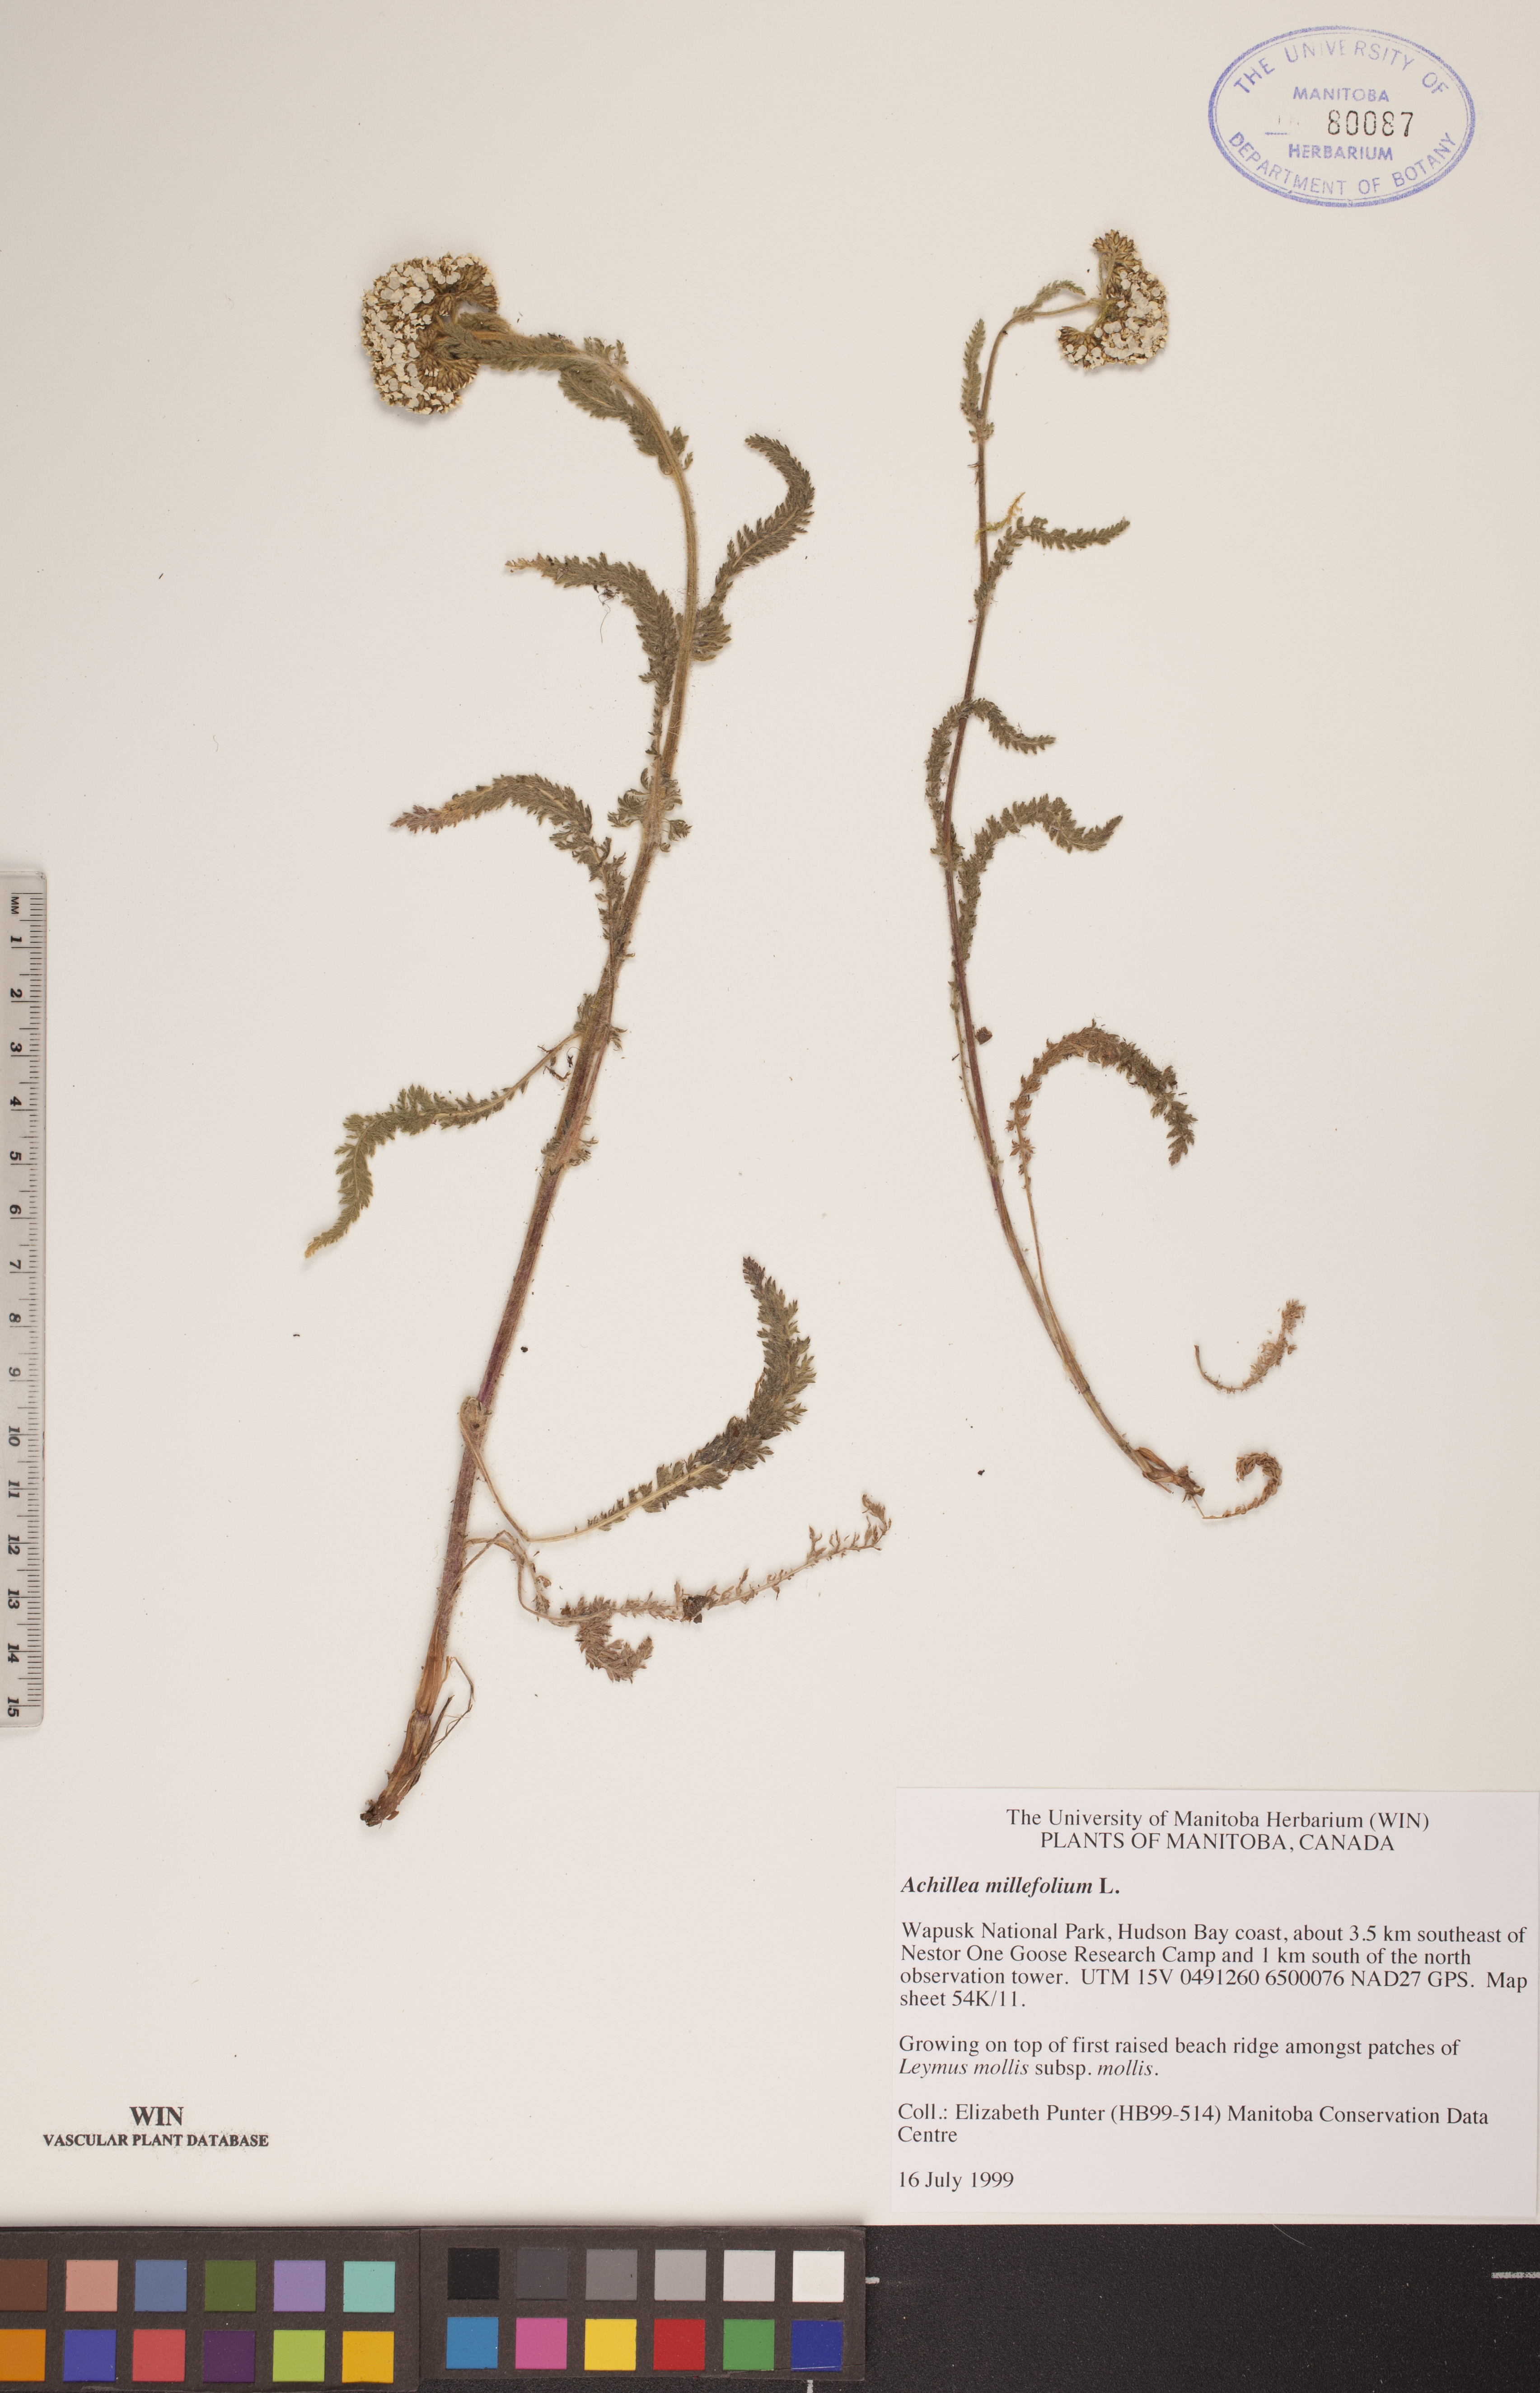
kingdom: Plantae
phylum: Tracheophyta
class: Magnoliopsida
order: Asterales
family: Asteraceae
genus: Achillea
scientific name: Achillea millefolium
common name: Yarrow
